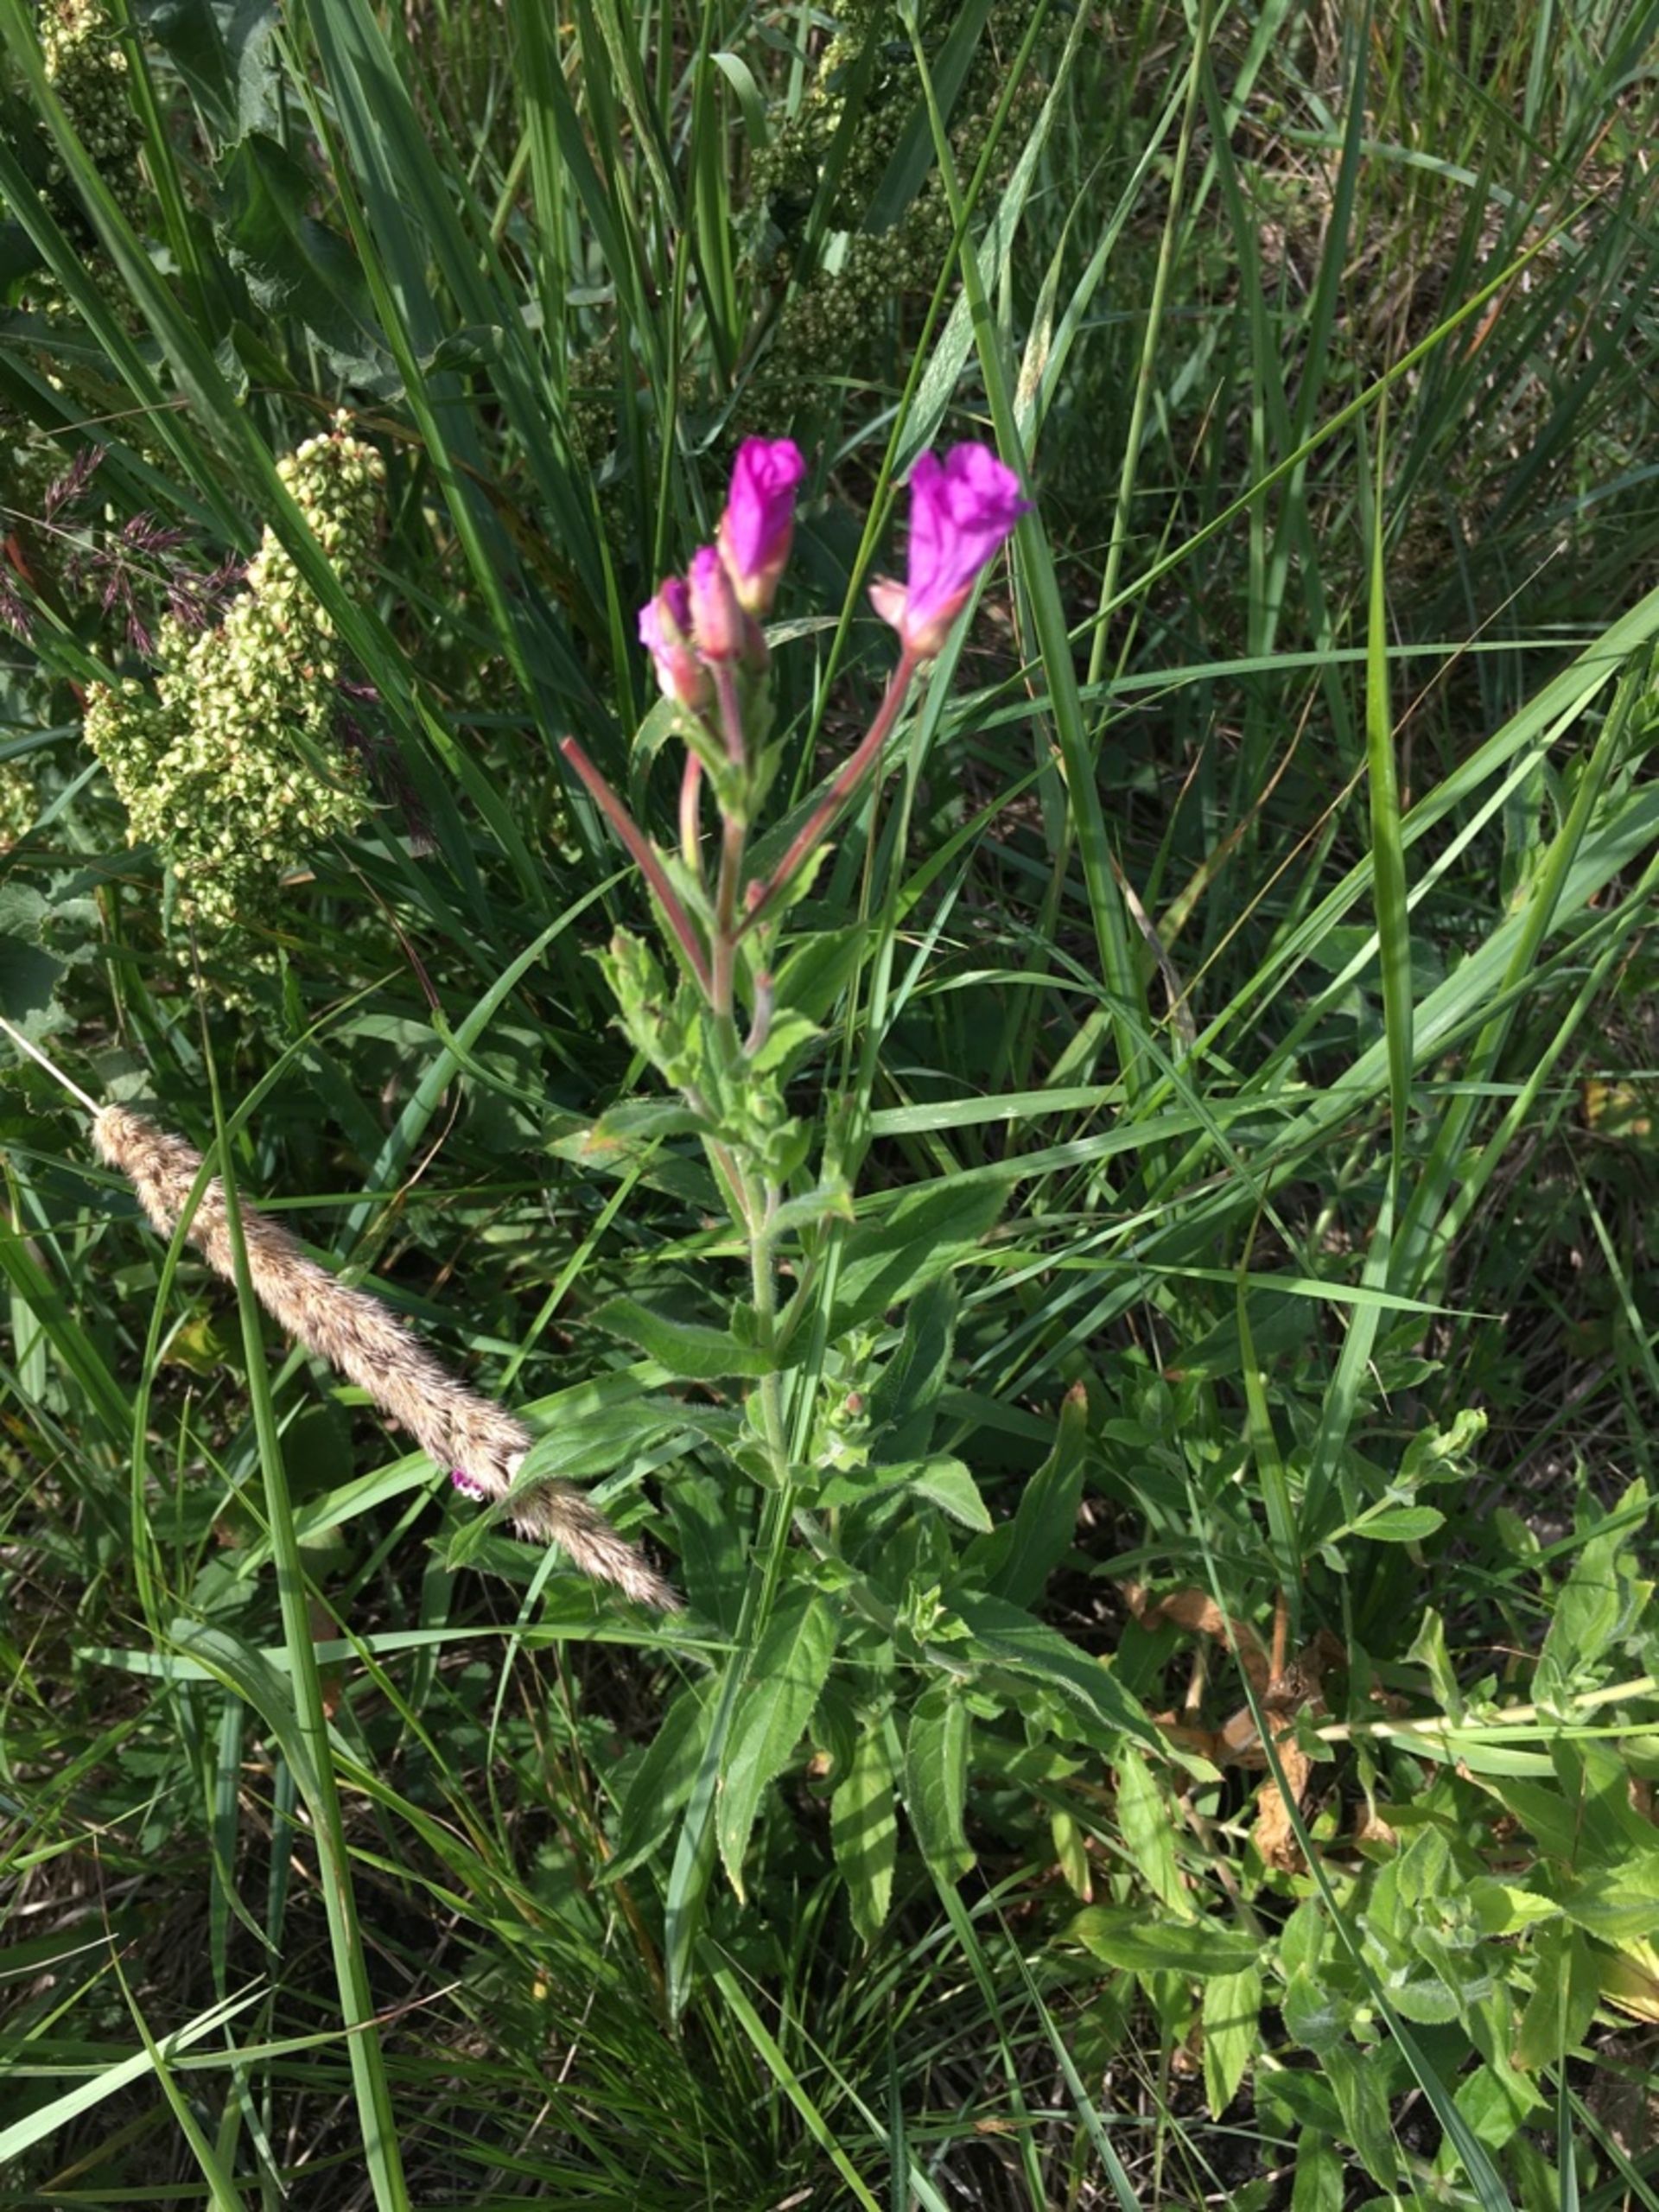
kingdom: Plantae
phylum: Tracheophyta
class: Magnoliopsida
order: Myrtales
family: Onagraceae
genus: Epilobium
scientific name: Epilobium hirsutum
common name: Lådden dueurt
